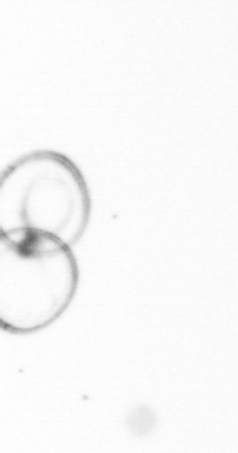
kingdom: Chromista
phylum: Myzozoa
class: Dinophyceae
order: Noctilucales
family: Noctilucaceae
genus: Noctiluca
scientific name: Noctiluca scintillans
